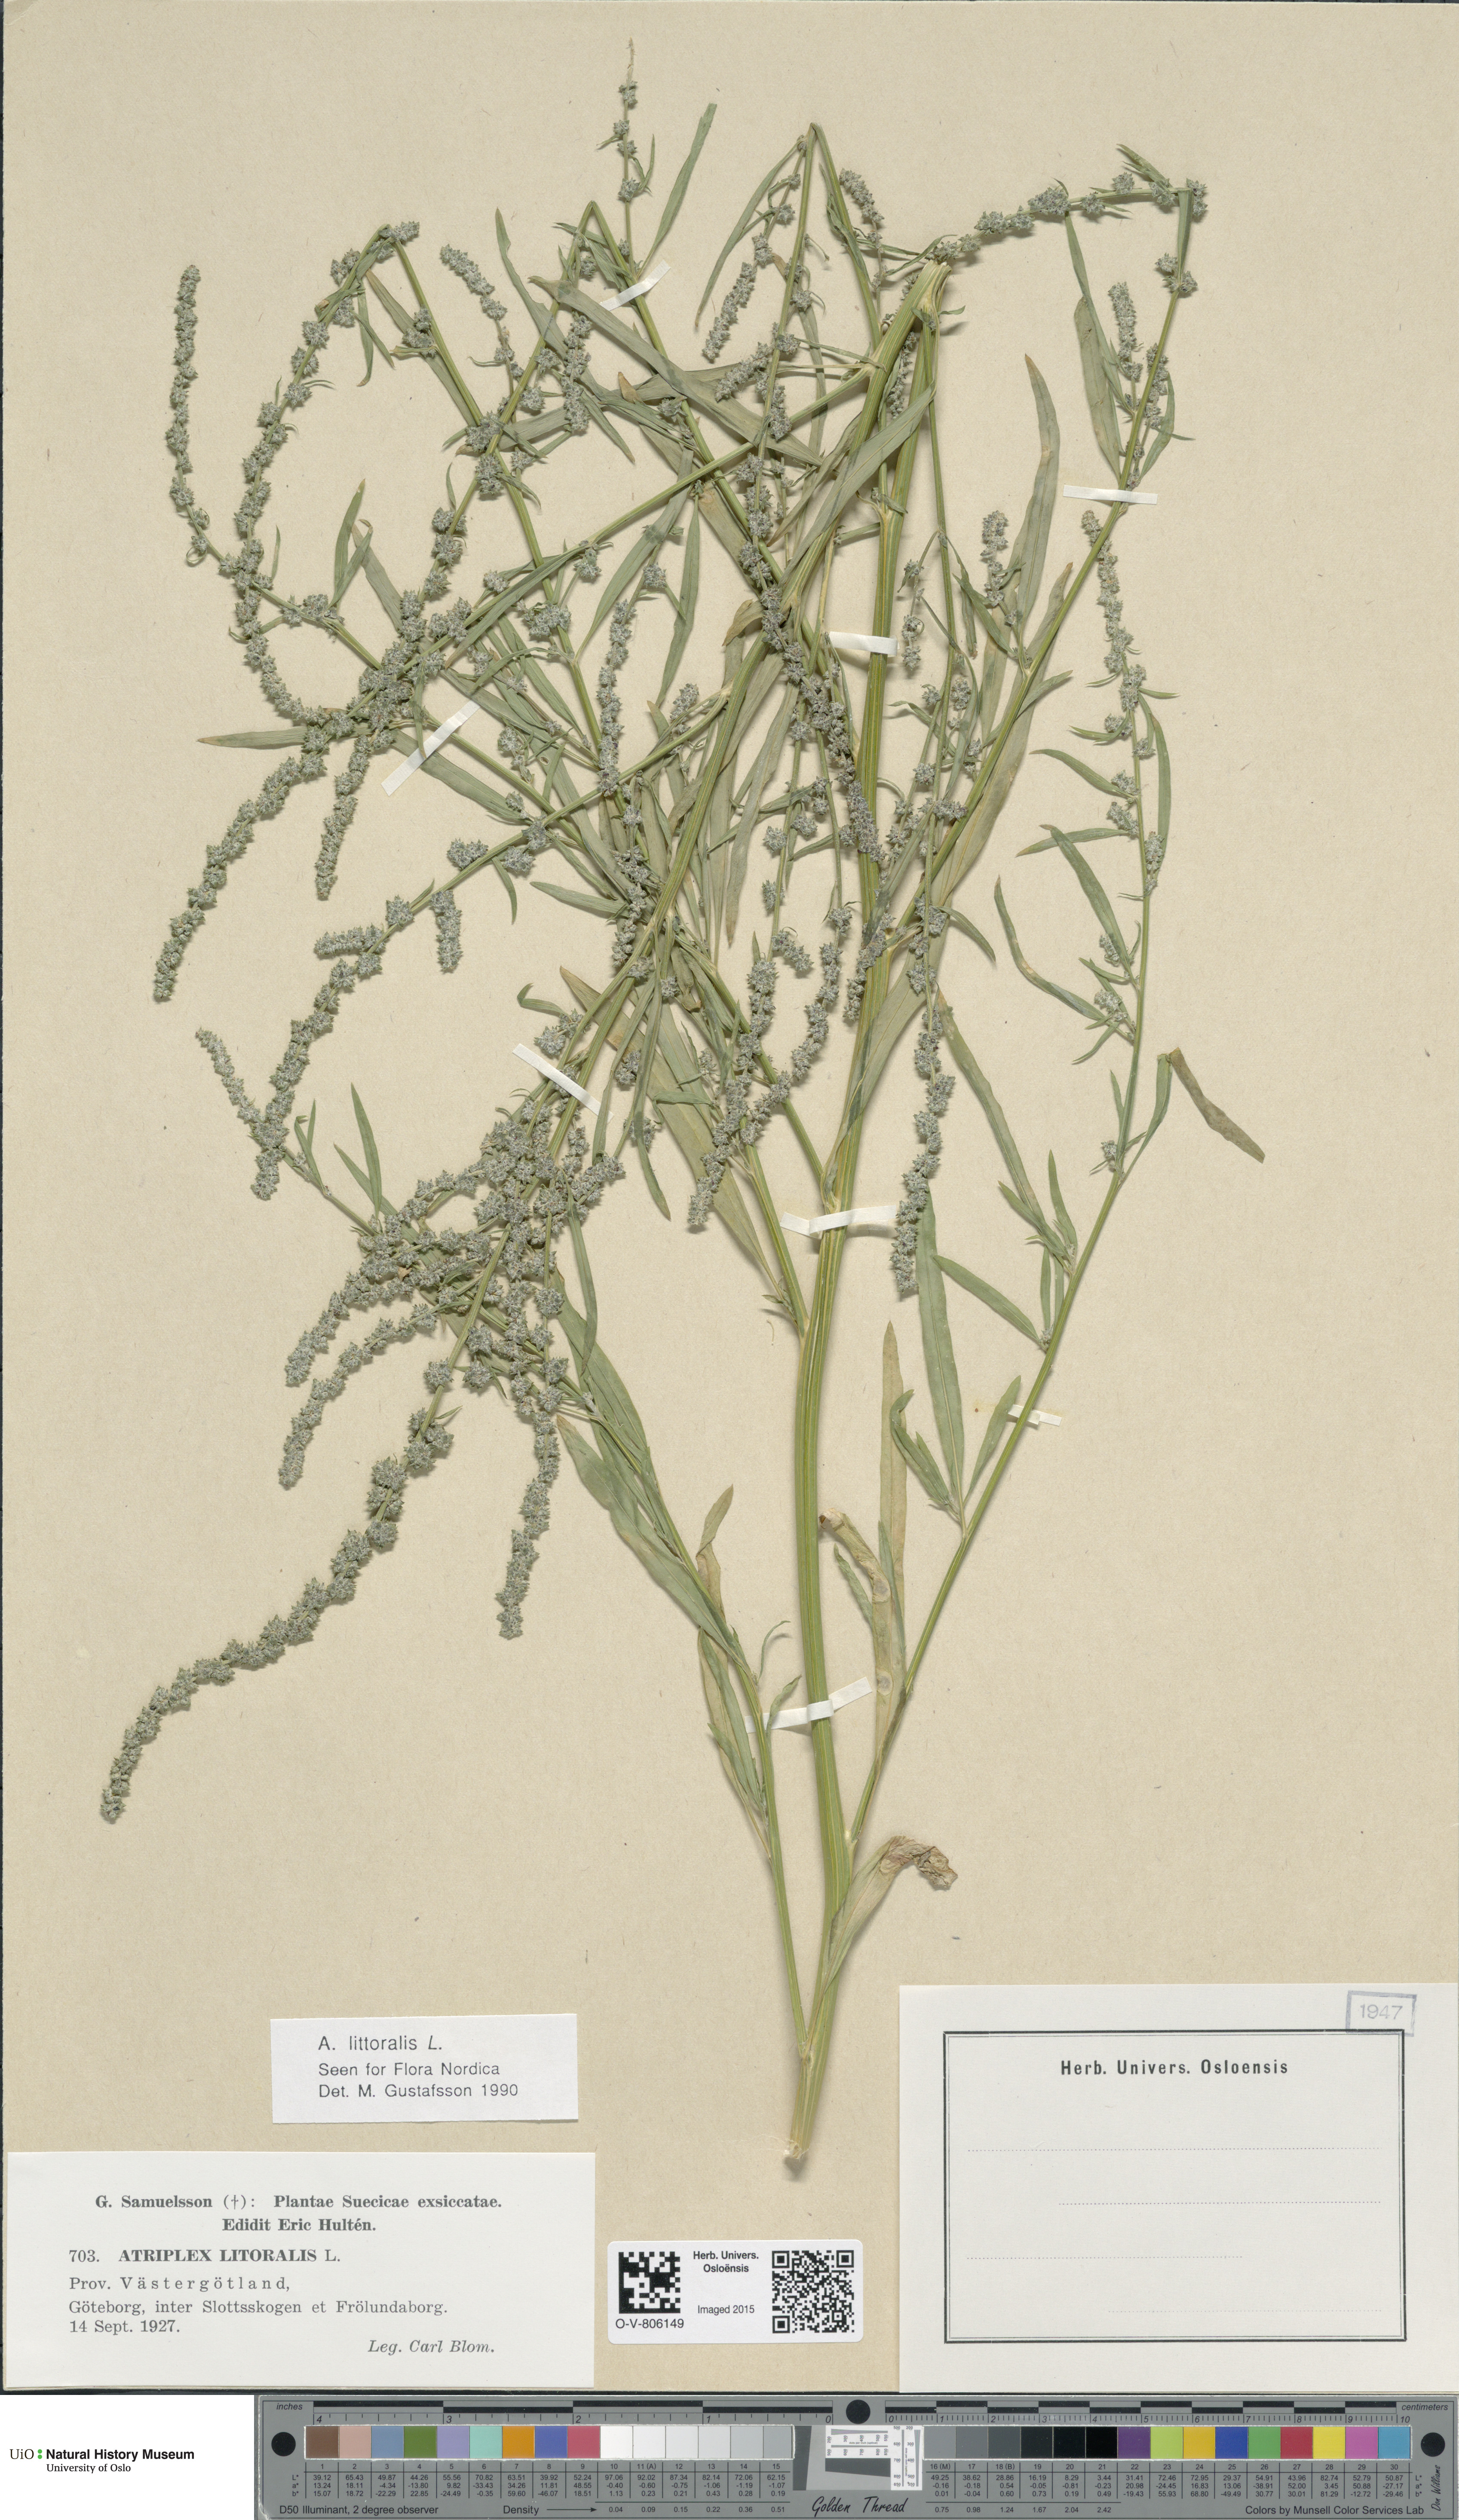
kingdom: Plantae
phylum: Tracheophyta
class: Magnoliopsida
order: Caryophyllales
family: Amaranthaceae
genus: Atriplex
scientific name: Atriplex littoralis
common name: Grass-leaved orache
